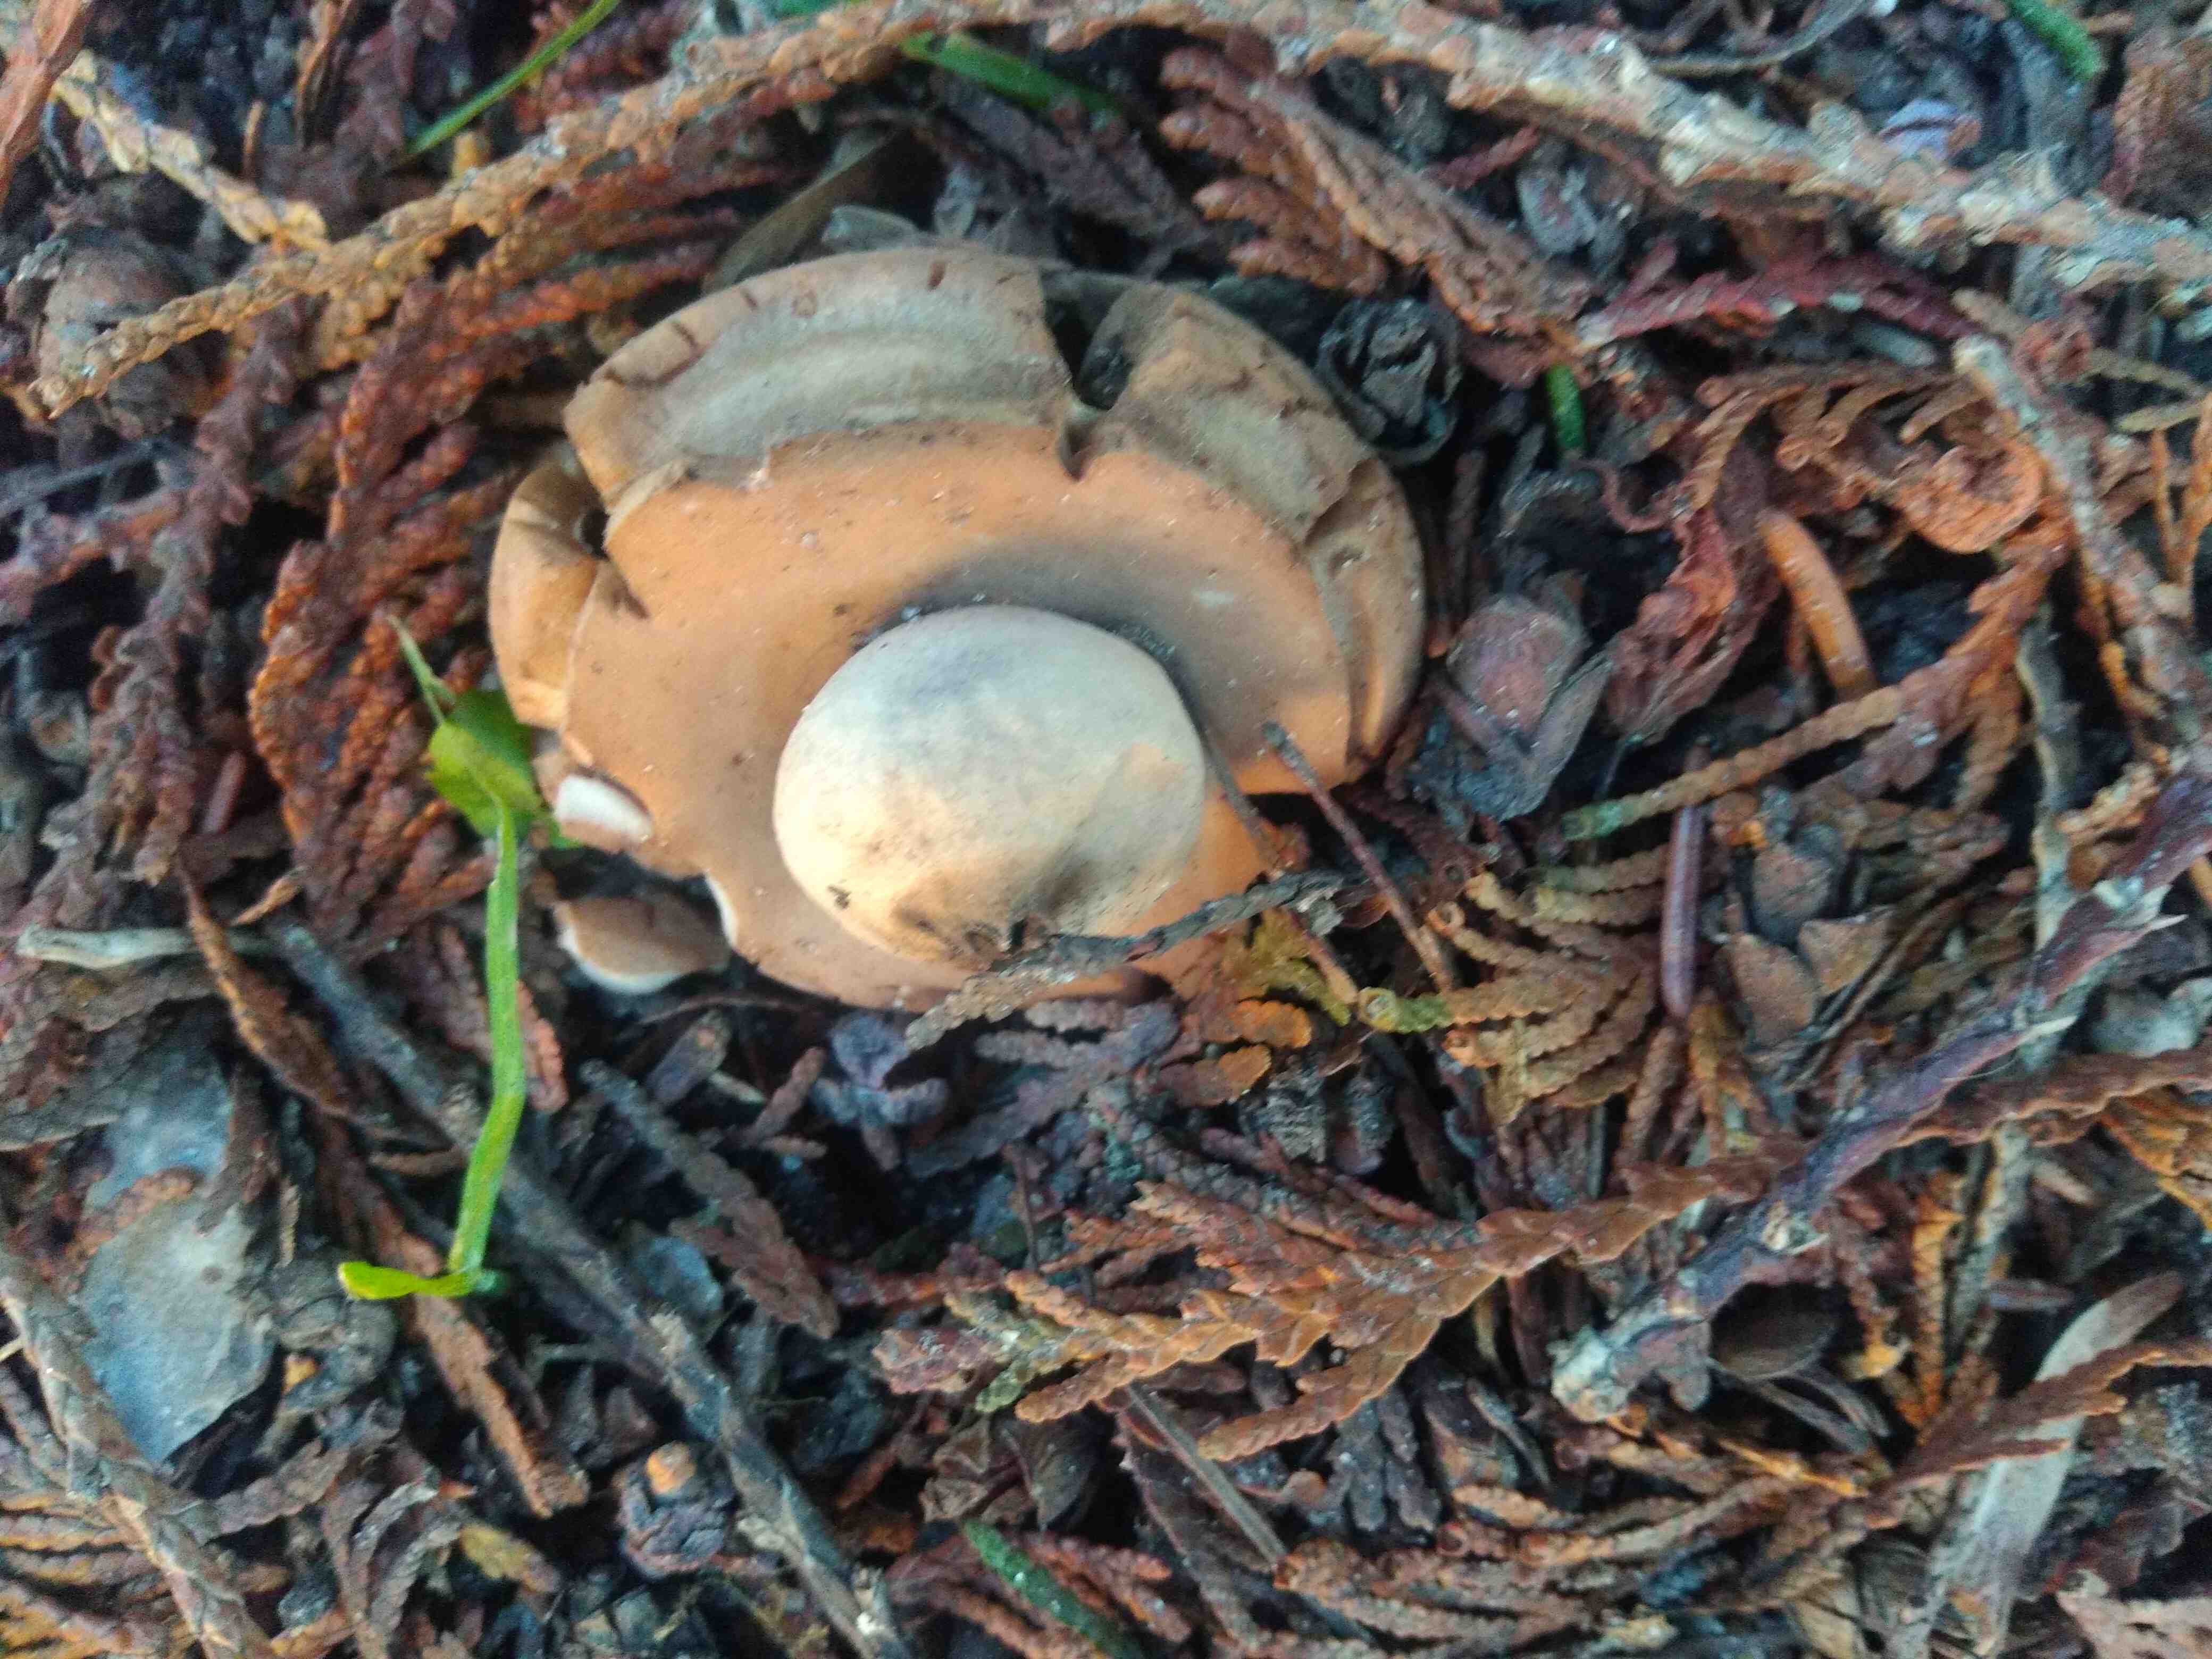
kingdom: Fungi
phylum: Basidiomycota
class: Agaricomycetes
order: Geastrales
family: Geastraceae
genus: Geastrum
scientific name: Geastrum michelianum
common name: kødet stjernebold
